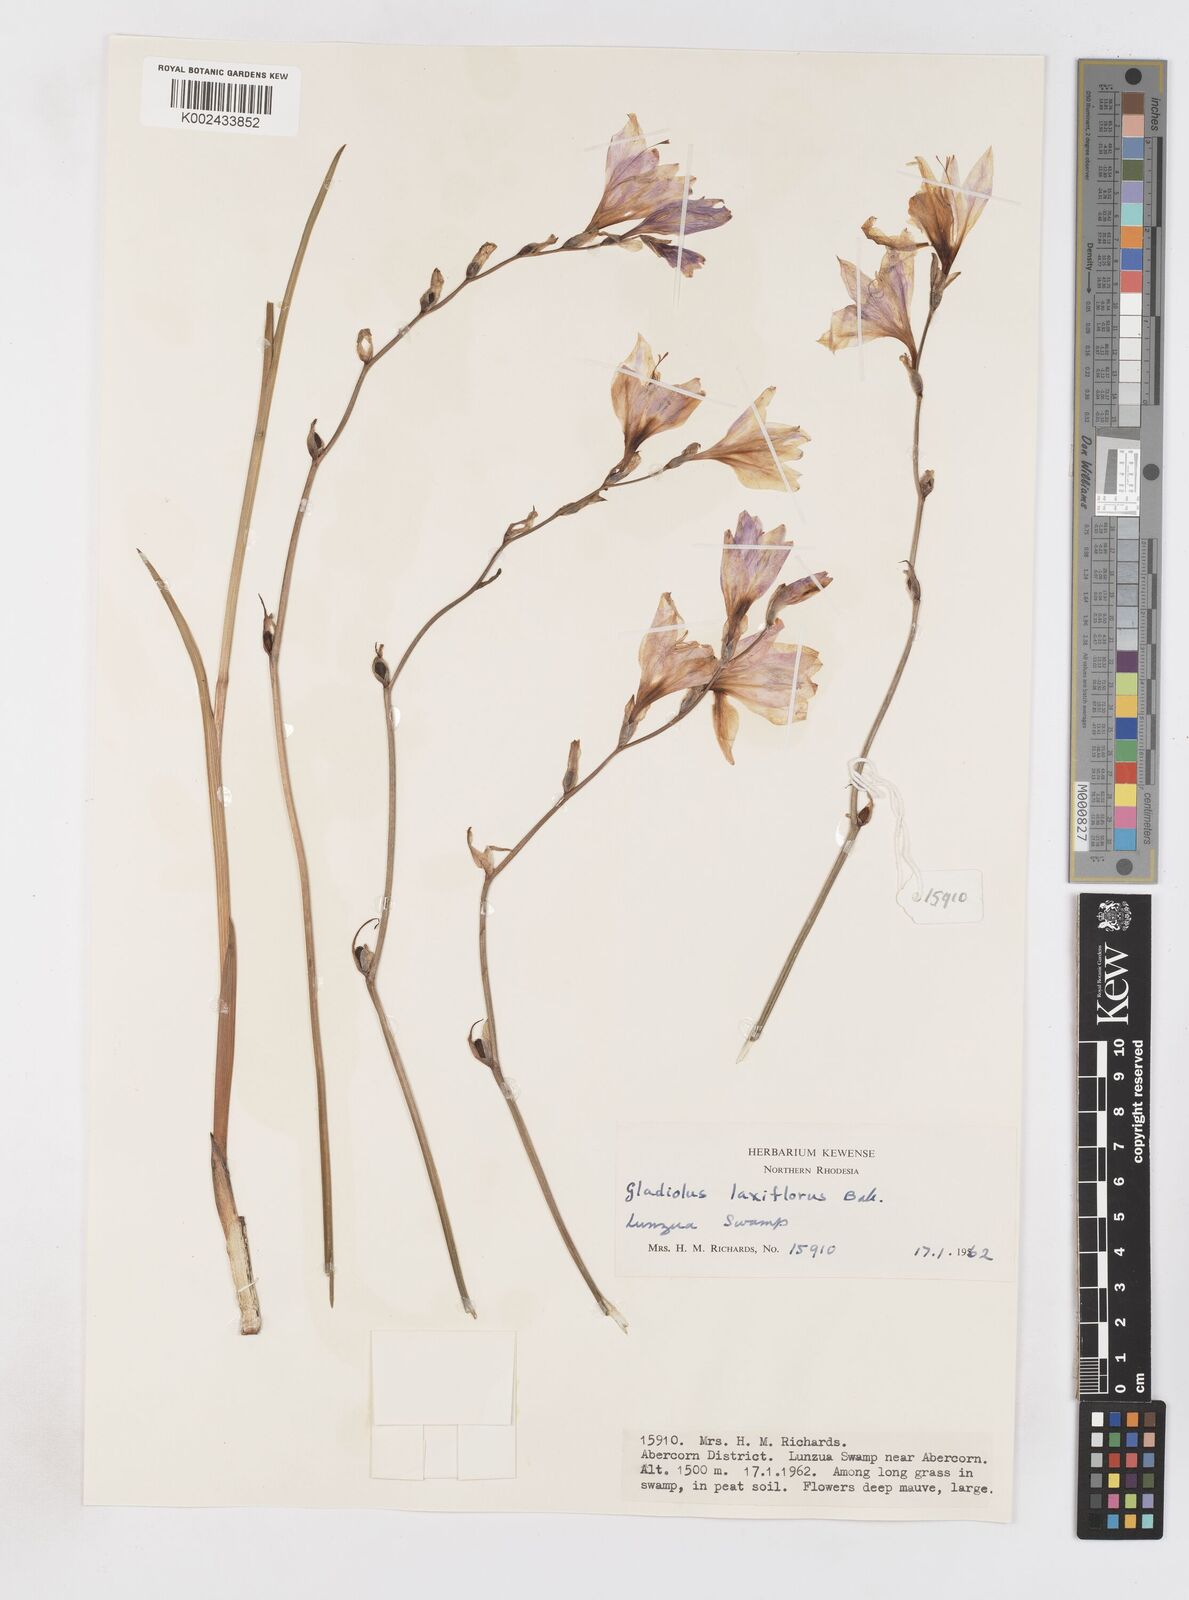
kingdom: Plantae
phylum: Tracheophyta
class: Liliopsida
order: Asparagales
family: Iridaceae
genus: Gladiolus
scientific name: Gladiolus laxiflorus
